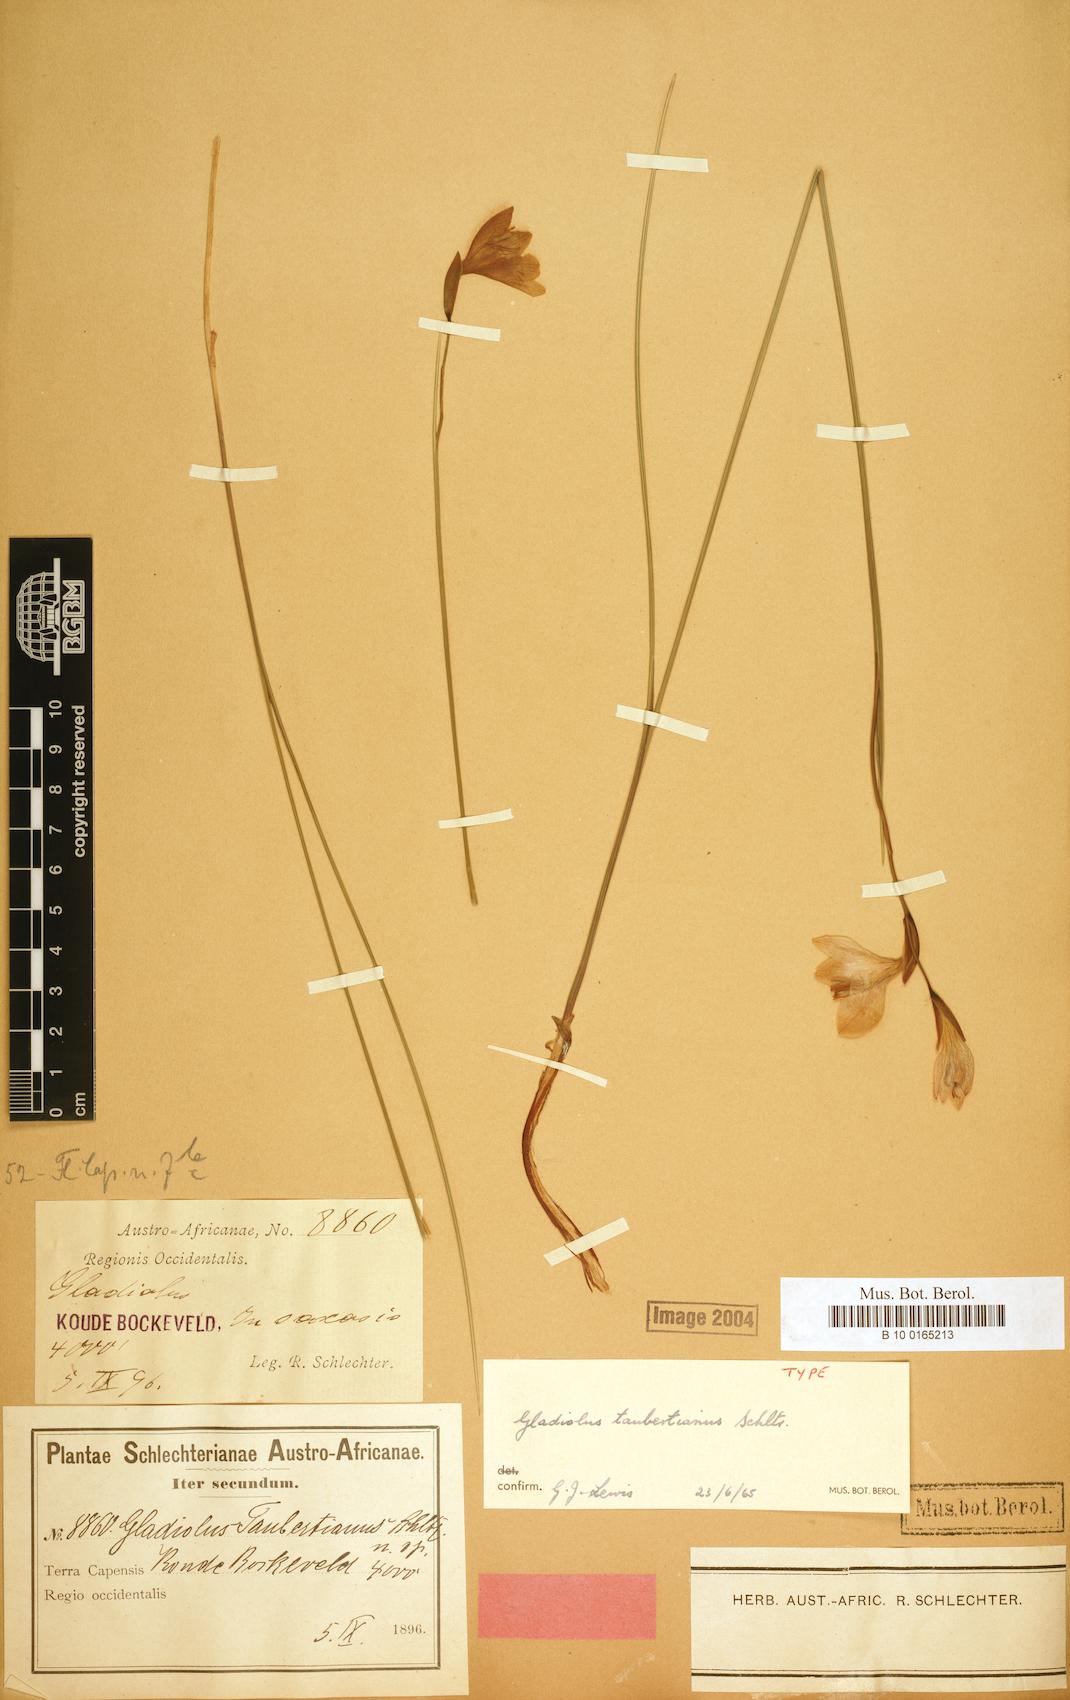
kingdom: Plantae
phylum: Tracheophyta
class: Liliopsida
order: Asparagales
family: Iridaceae
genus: Gladiolus
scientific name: Gladiolus taubertianus
